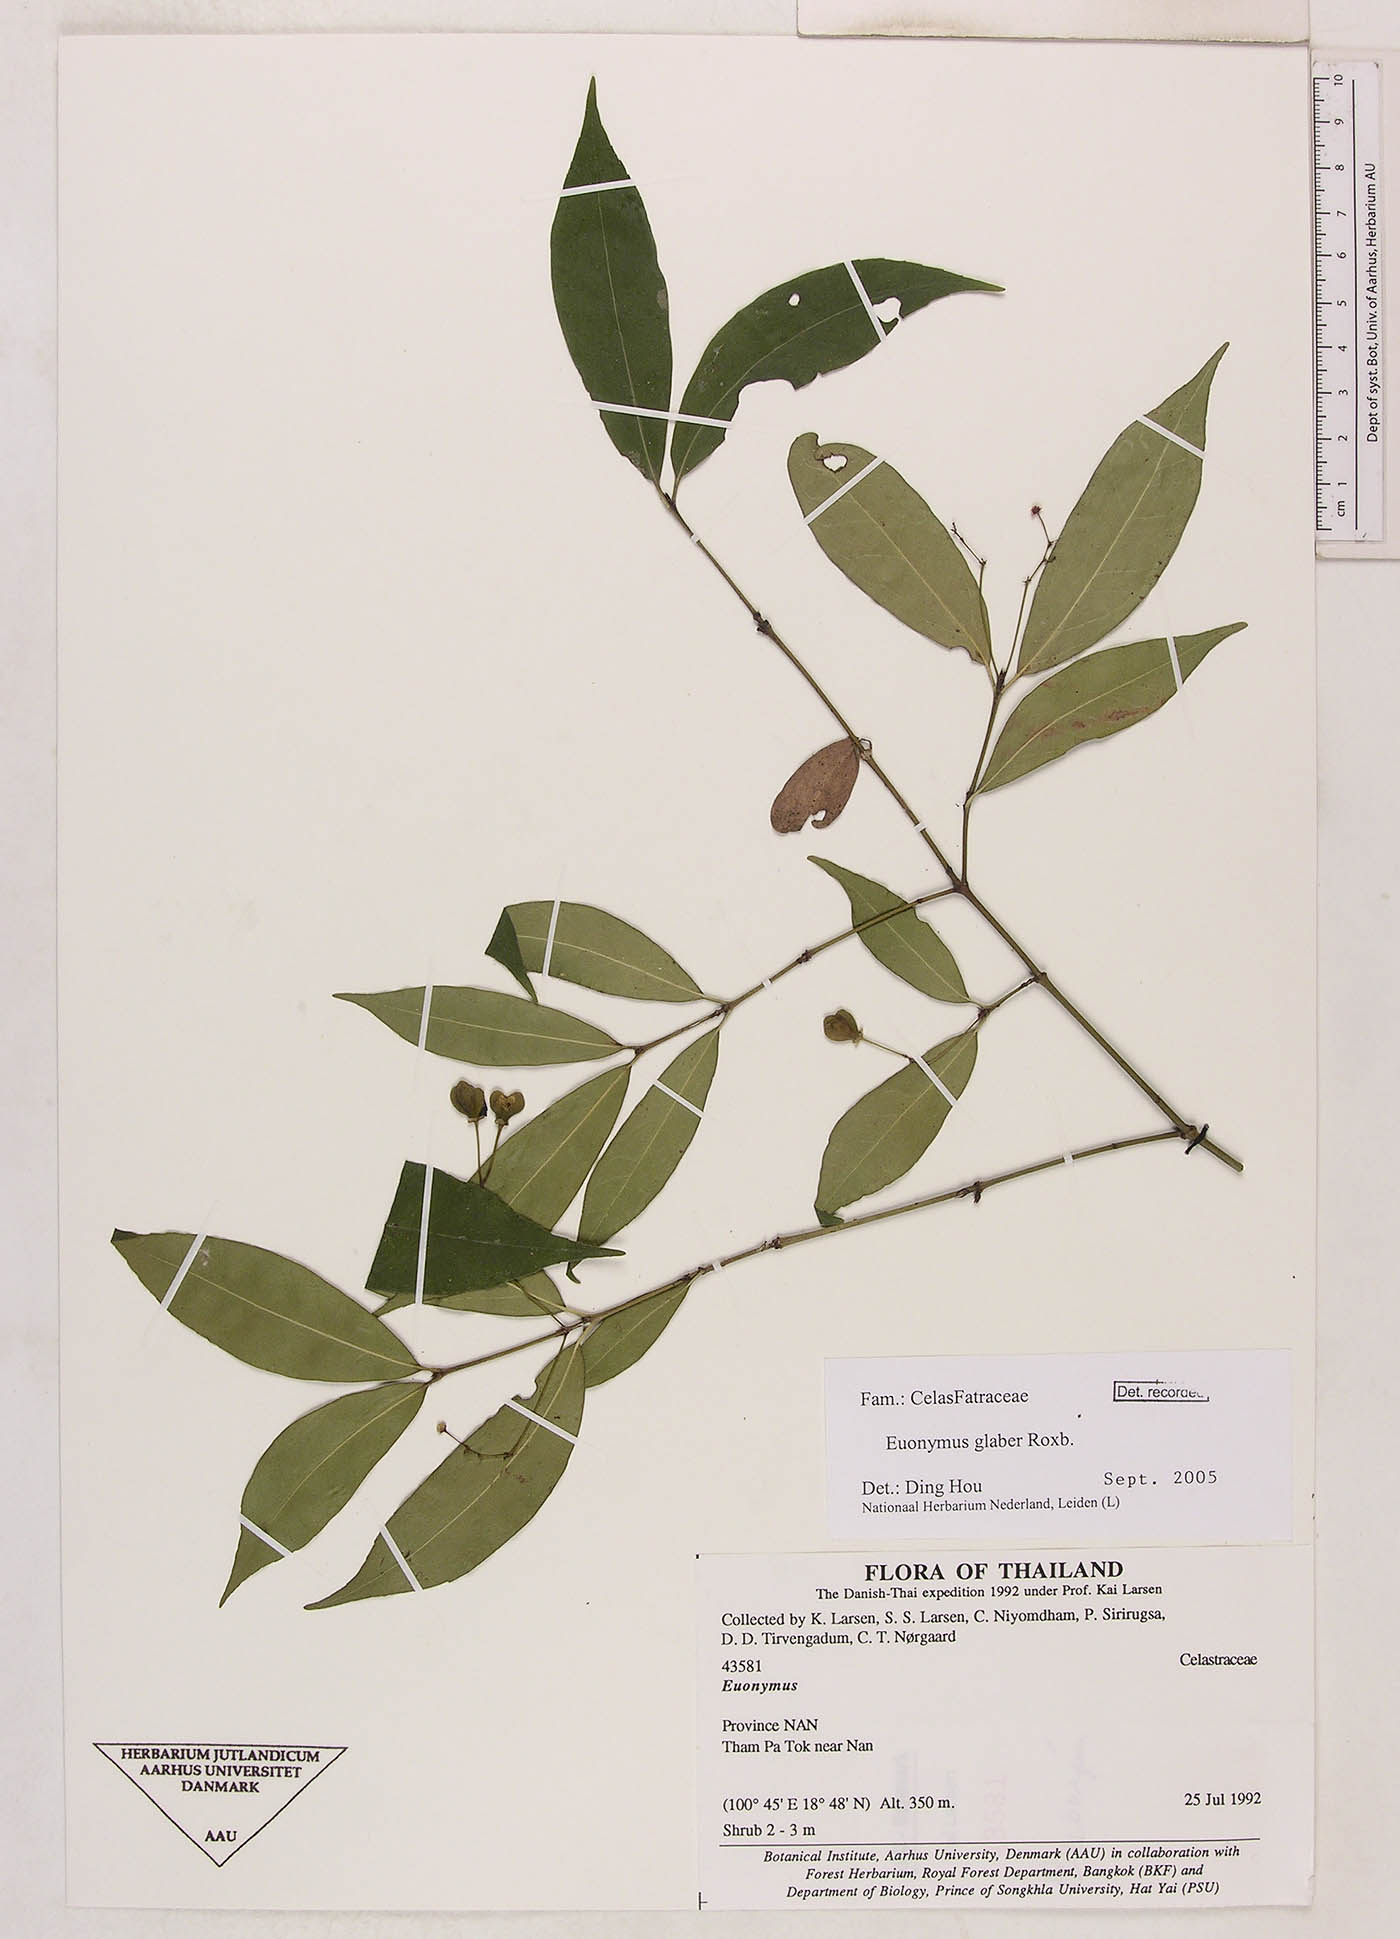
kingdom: Plantae
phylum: Tracheophyta
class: Magnoliopsida
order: Celastrales
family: Celastraceae
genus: Euonymus
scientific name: Euonymus glaber
